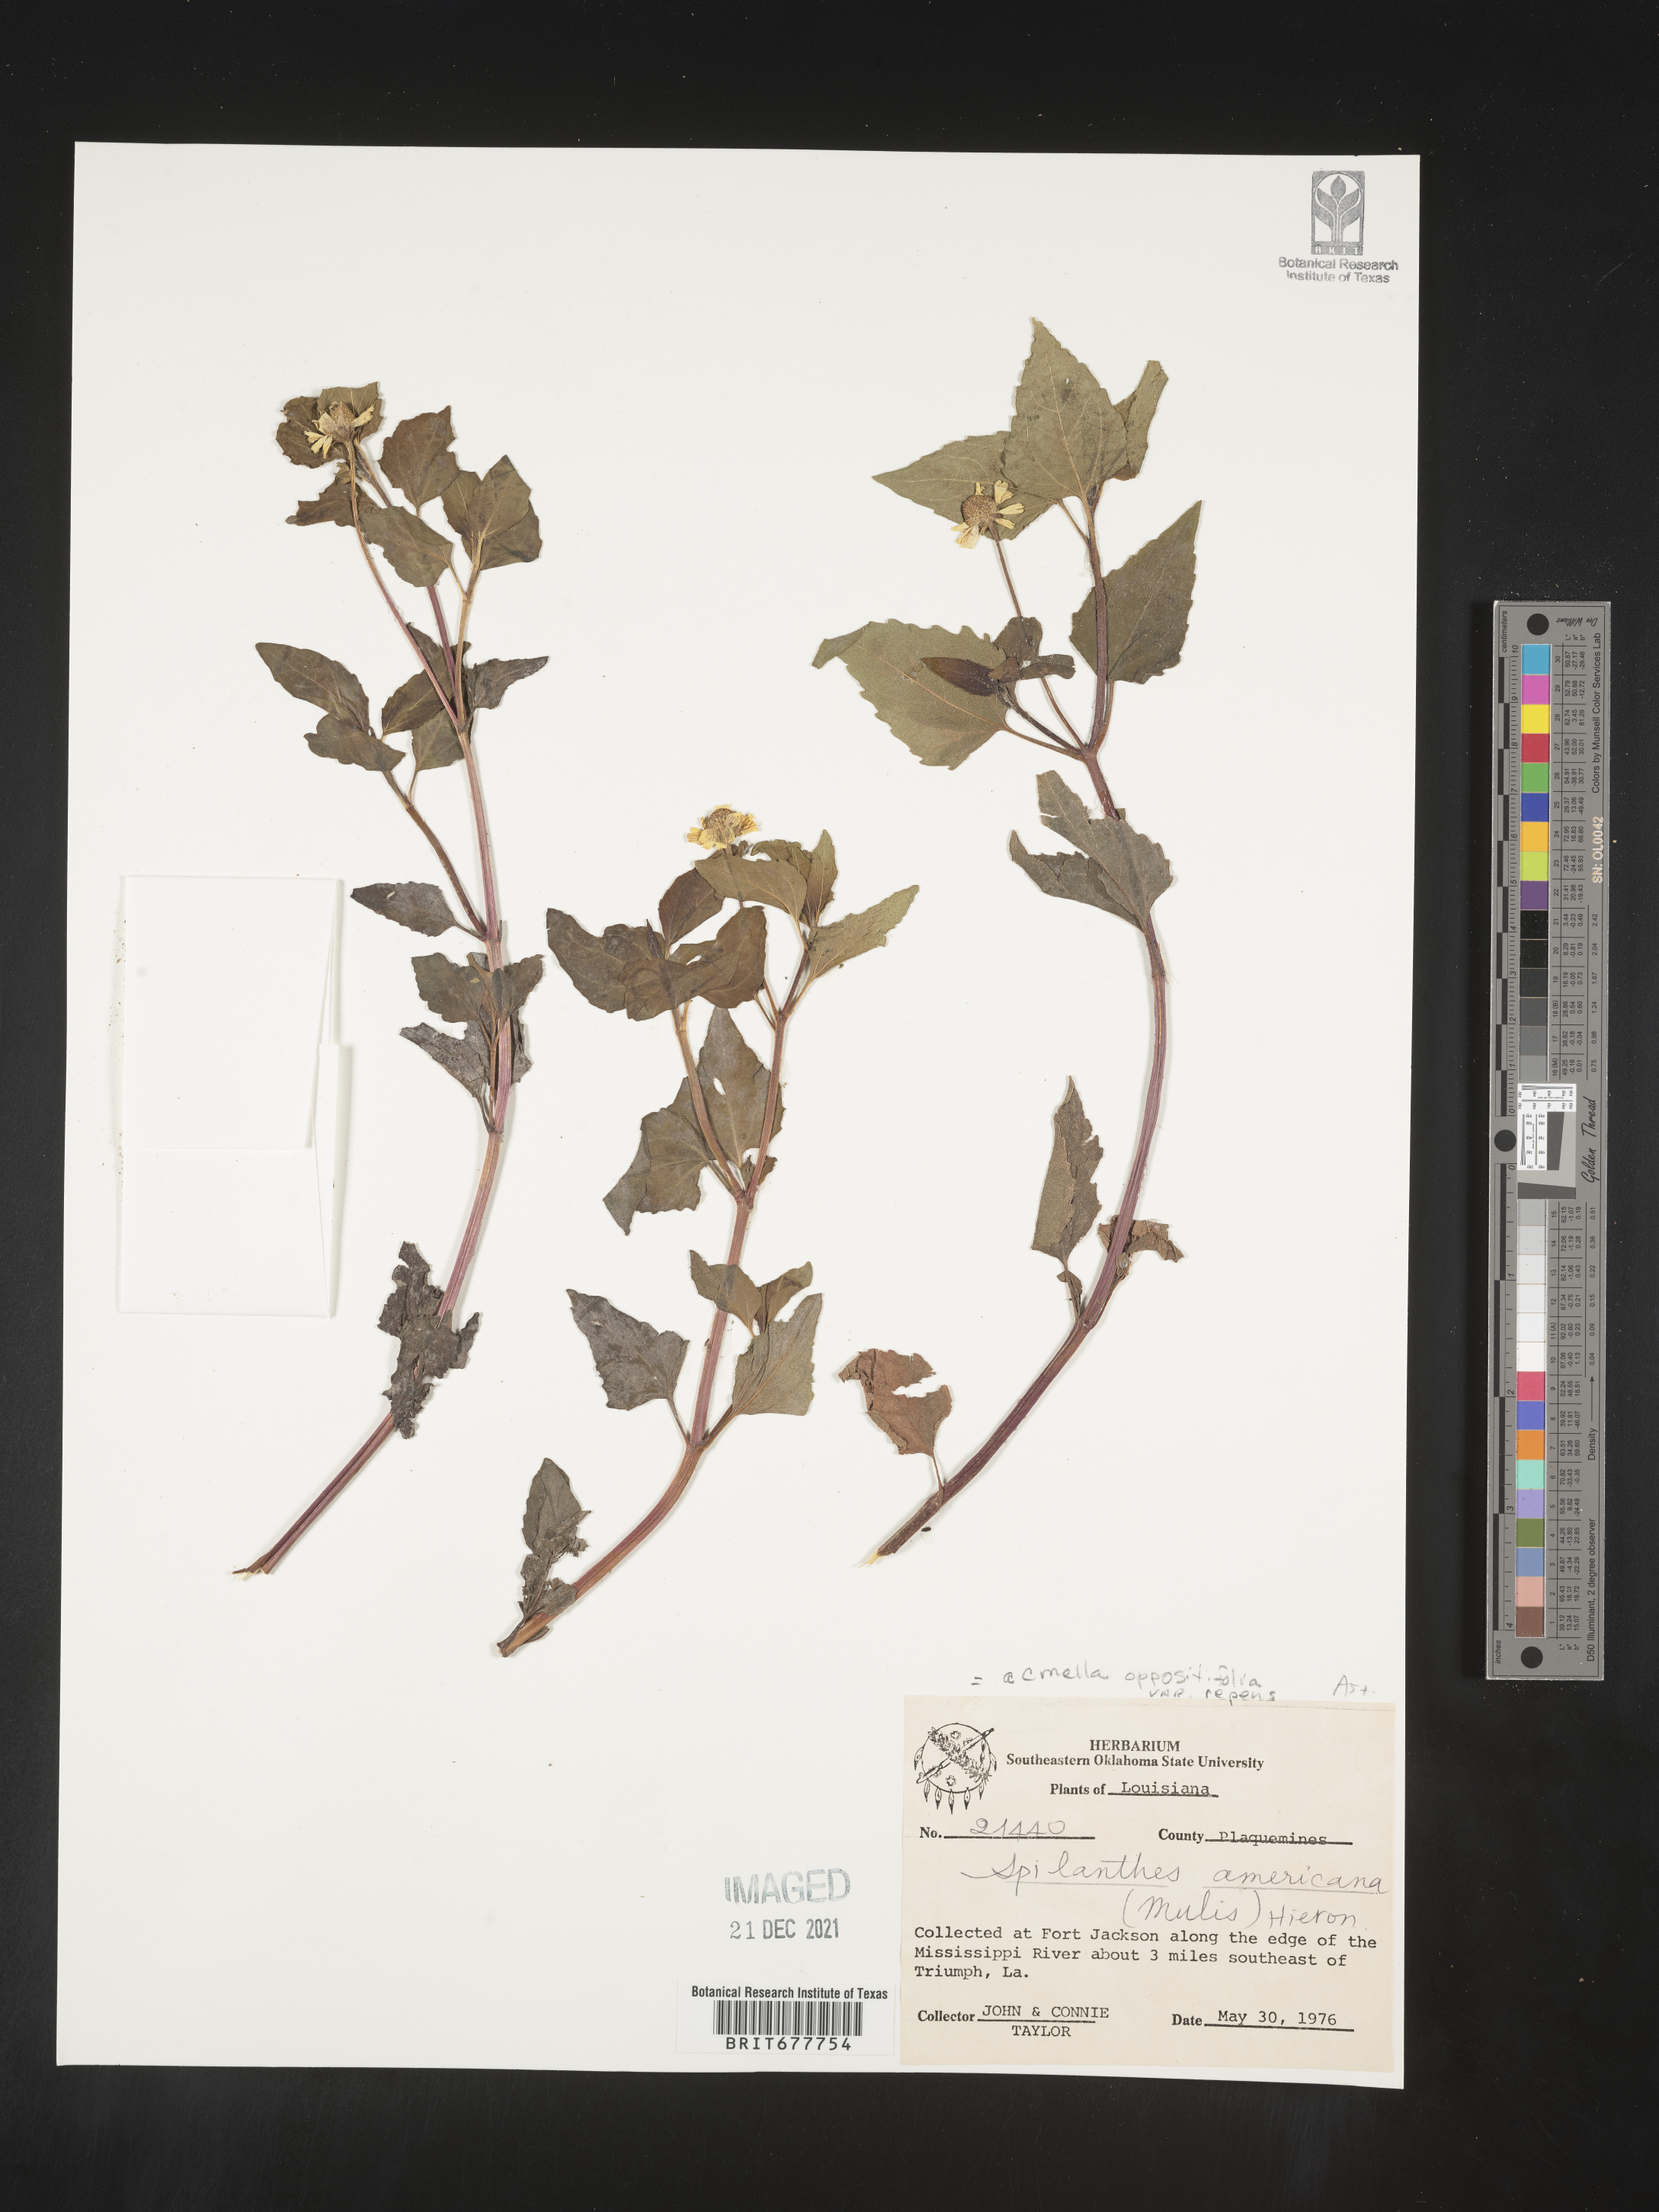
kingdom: Plantae
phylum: Tracheophyta
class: Magnoliopsida
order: Asterales
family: Asteraceae
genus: Spilanthes
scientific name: Spilanthes
